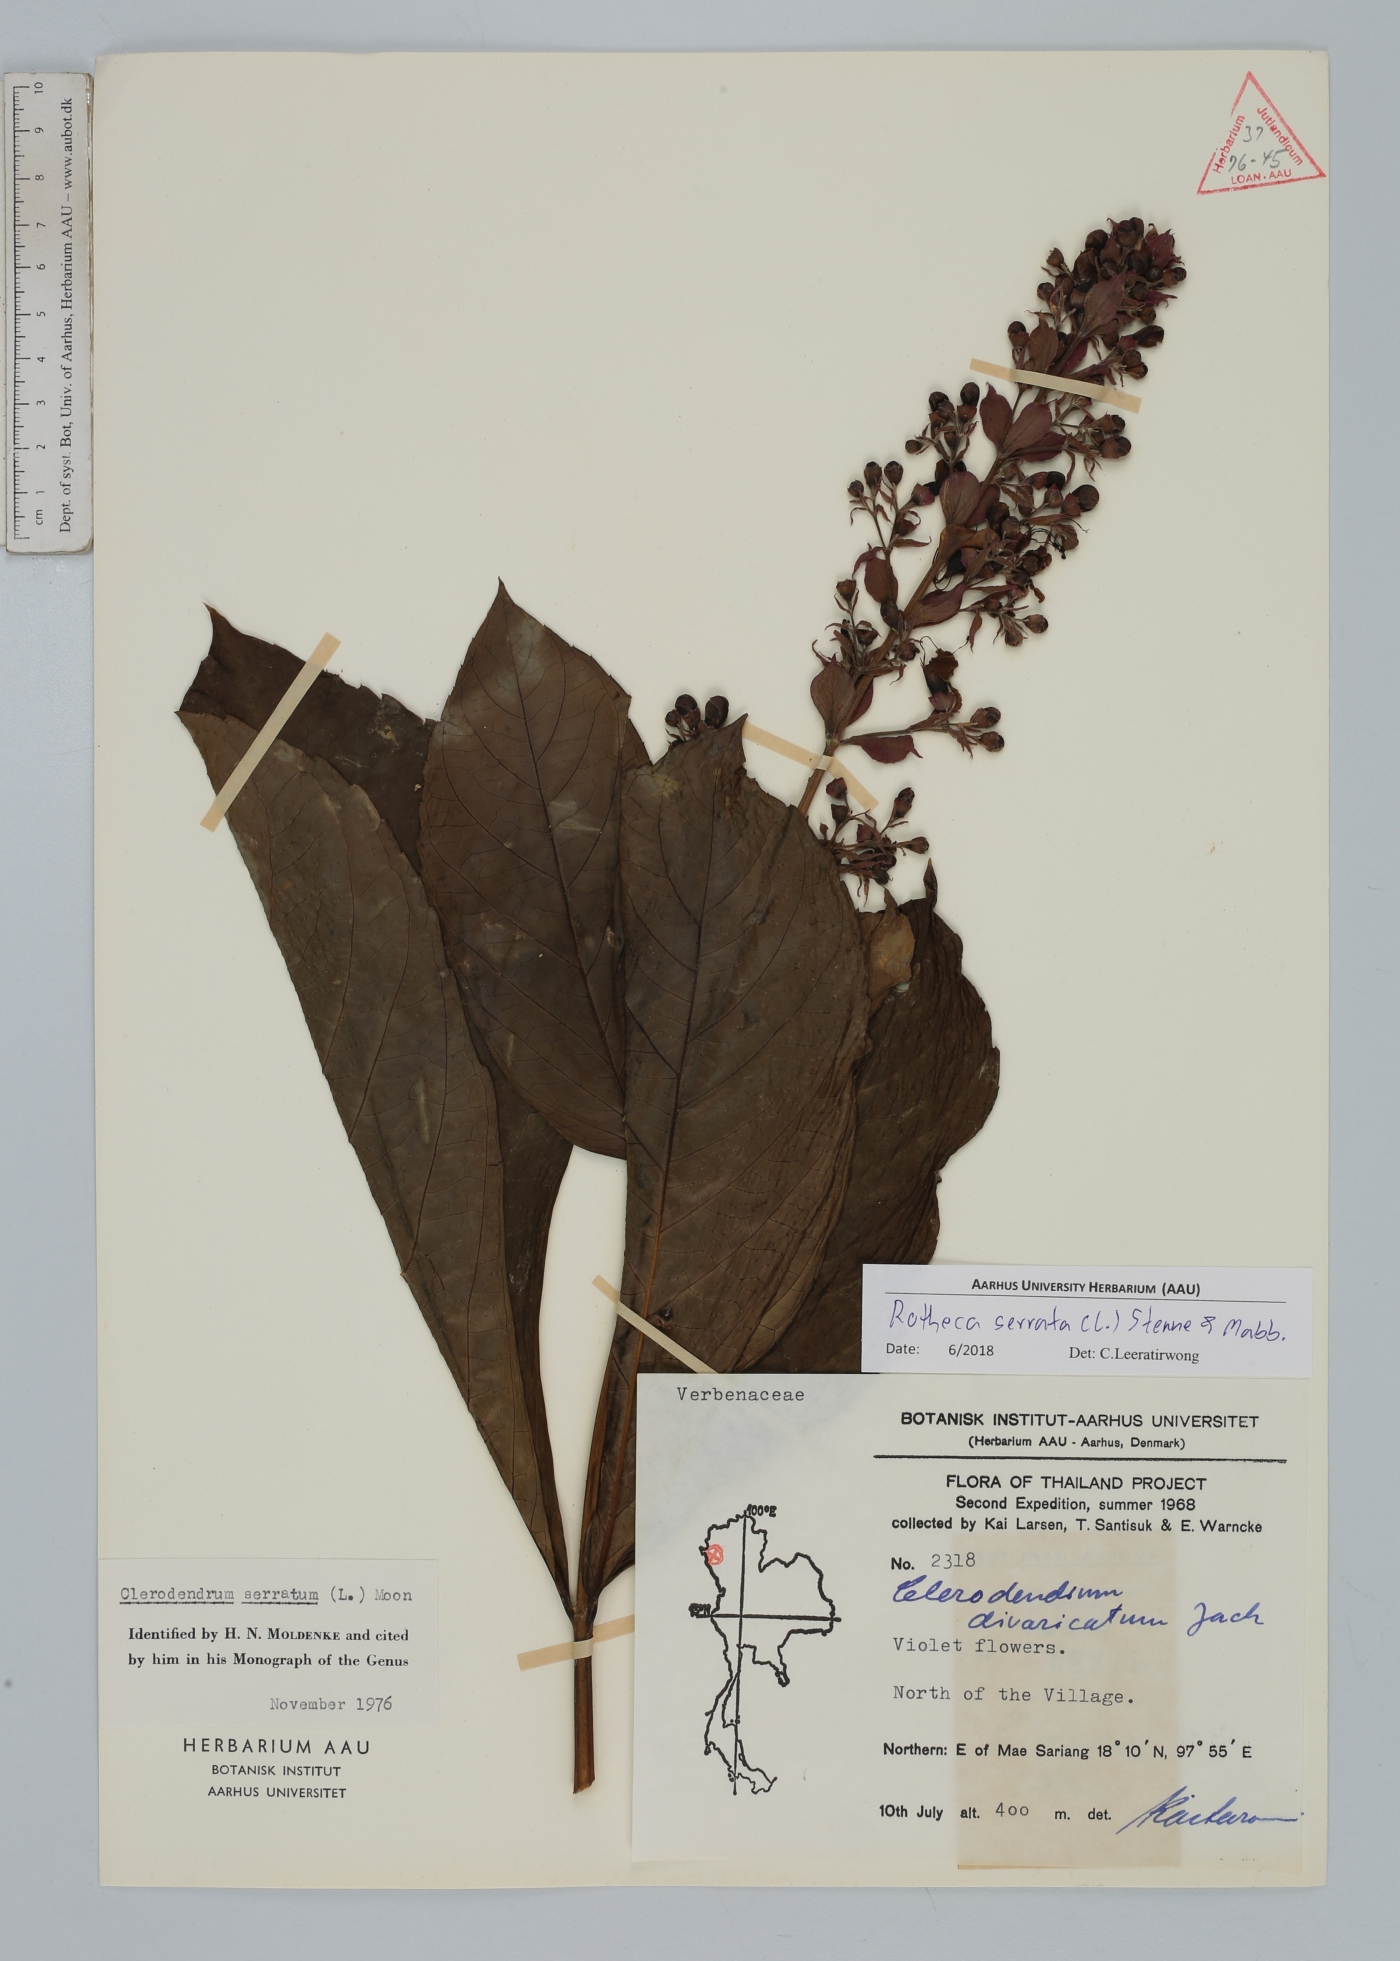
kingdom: Plantae
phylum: Tracheophyta
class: Magnoliopsida
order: Lamiales
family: Lamiaceae
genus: Rotheca
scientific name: Rotheca serrata
